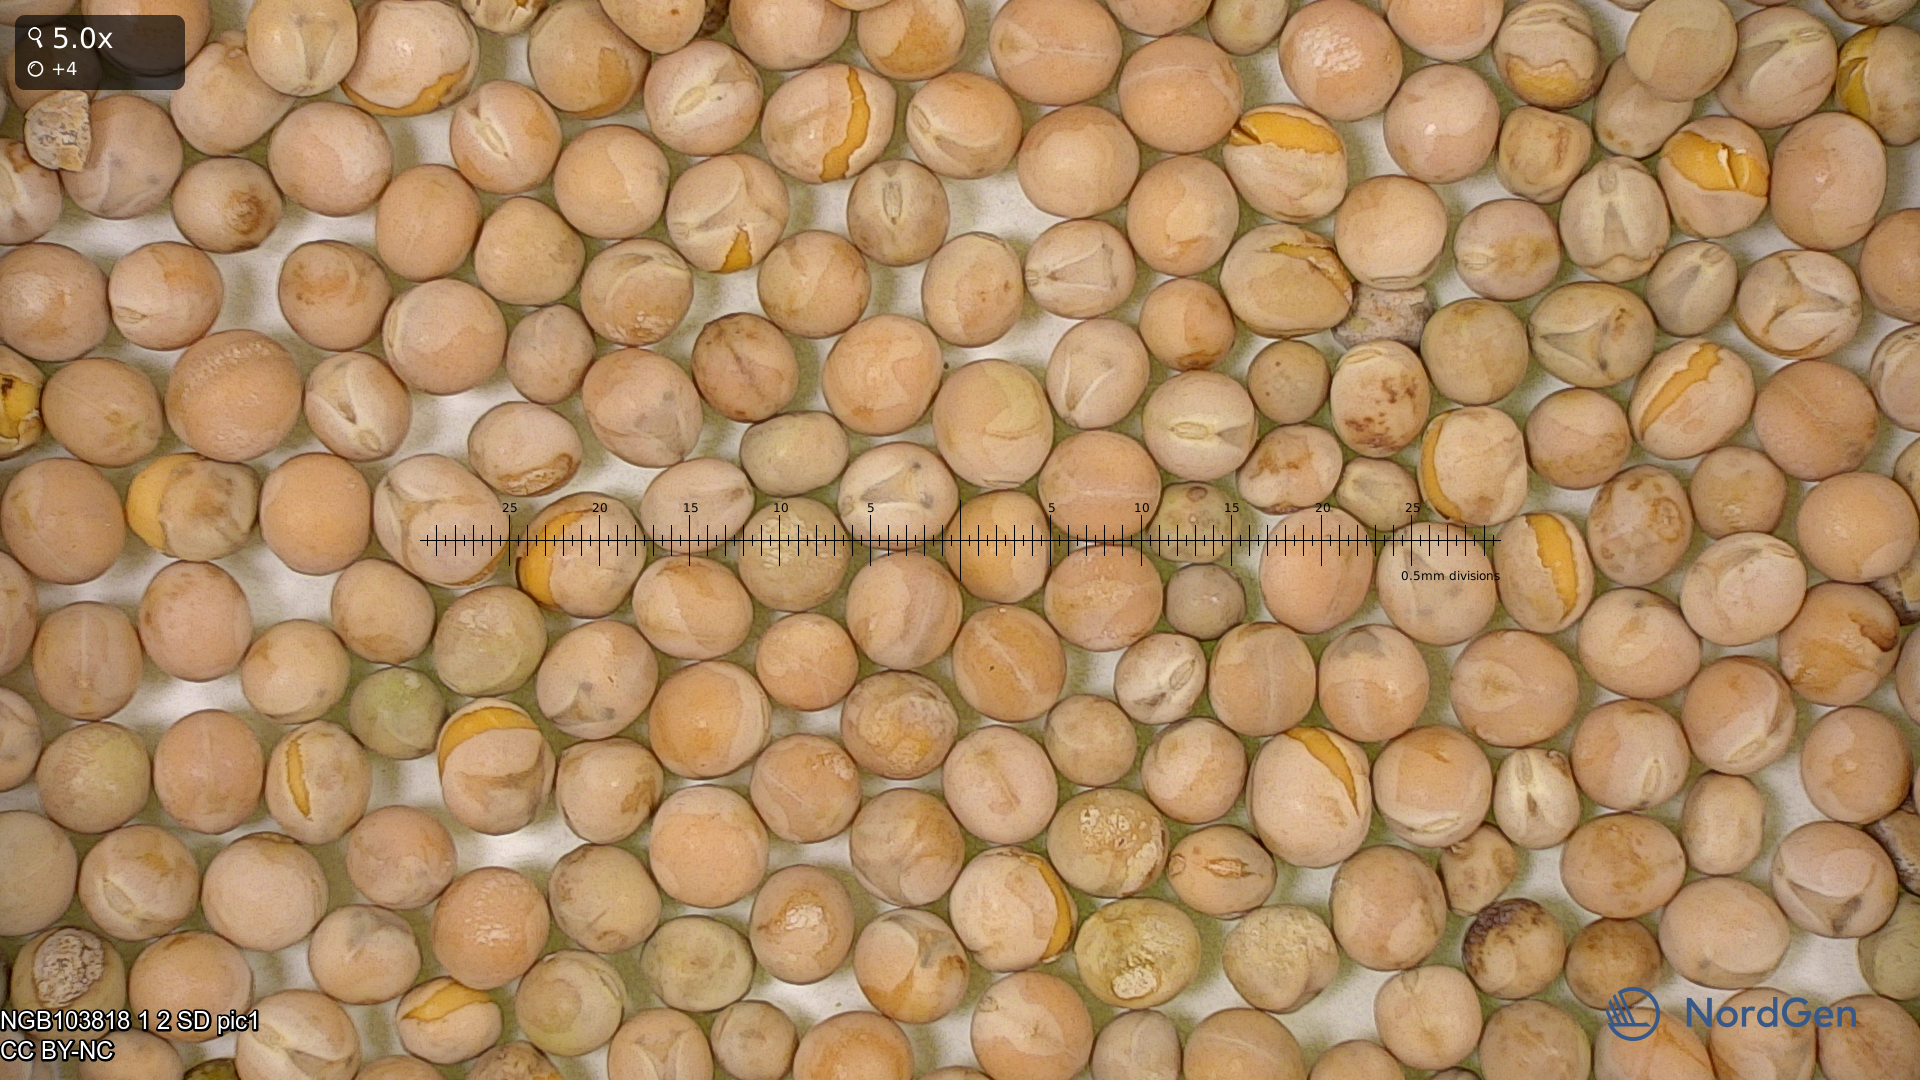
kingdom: Plantae
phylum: Tracheophyta
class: Magnoliopsida
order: Fabales
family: Fabaceae
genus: Lathyrus
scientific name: Lathyrus oleraceus
